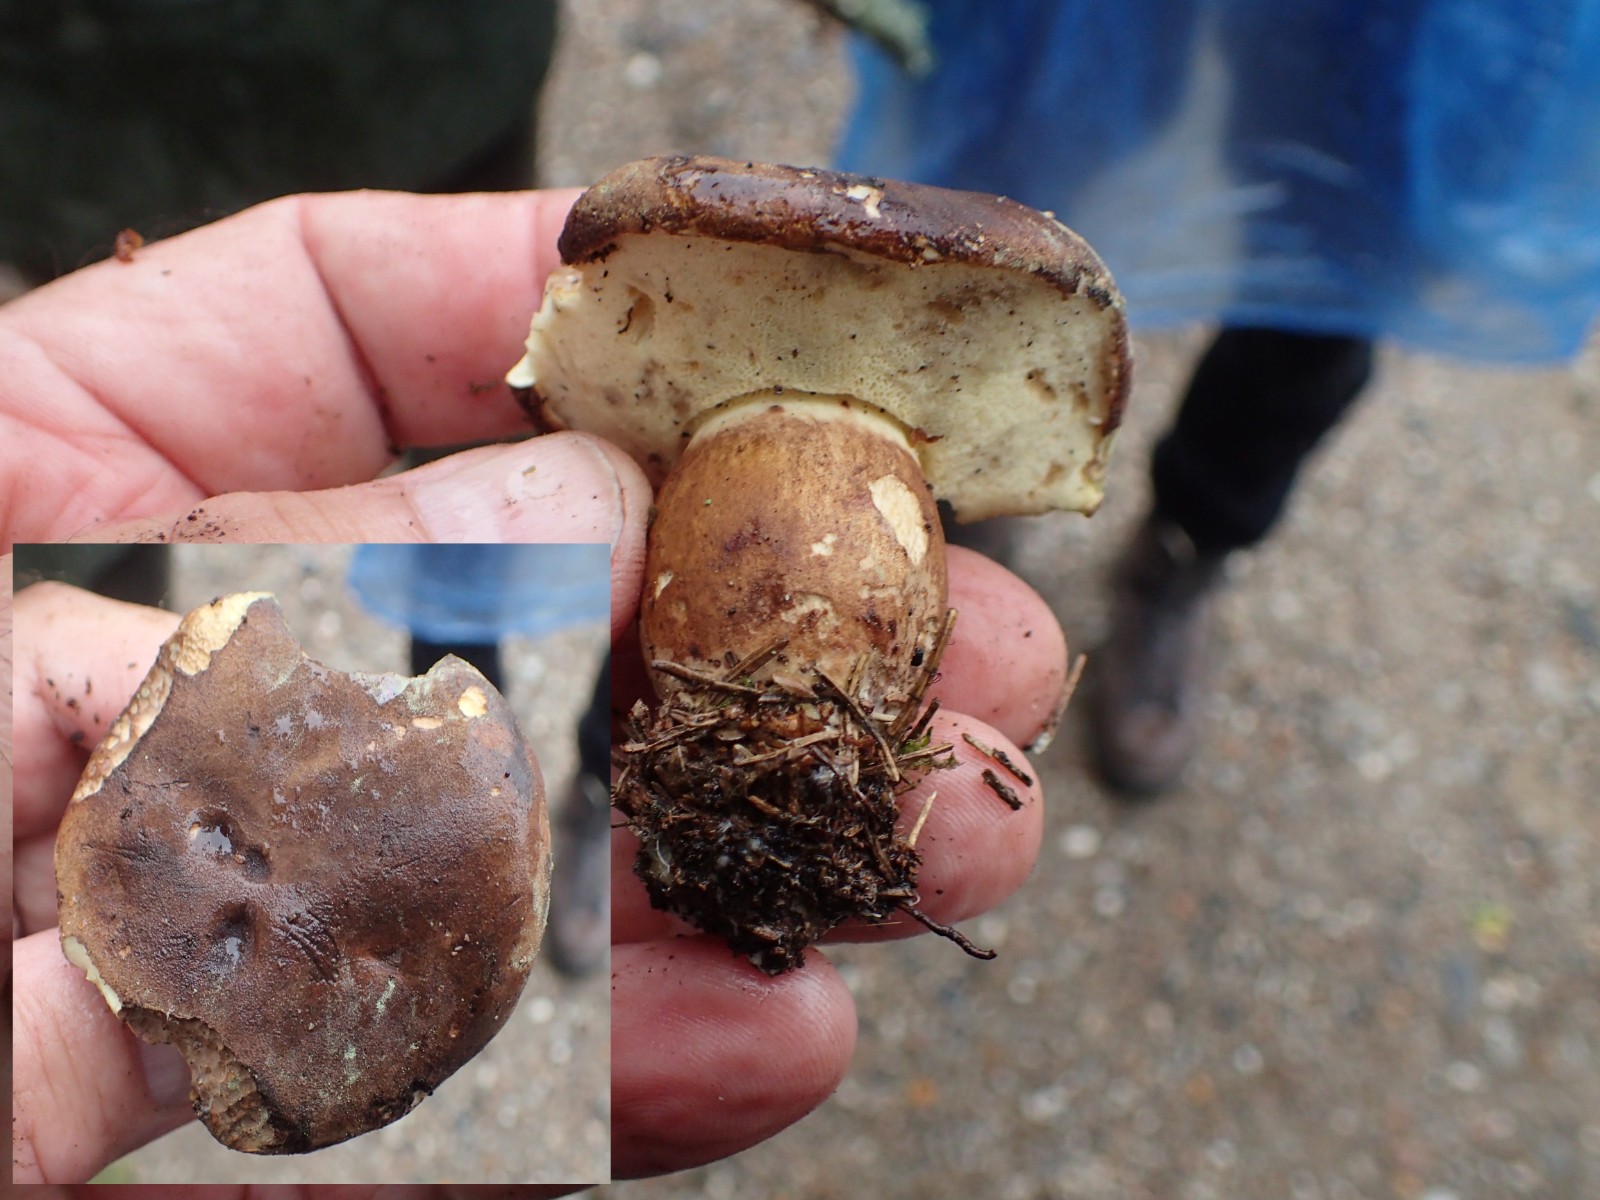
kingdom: Fungi
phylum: Basidiomycota
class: Agaricomycetes
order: Boletales
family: Boletaceae
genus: Imleria
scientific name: Imleria badia
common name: brunstokket rørhat
